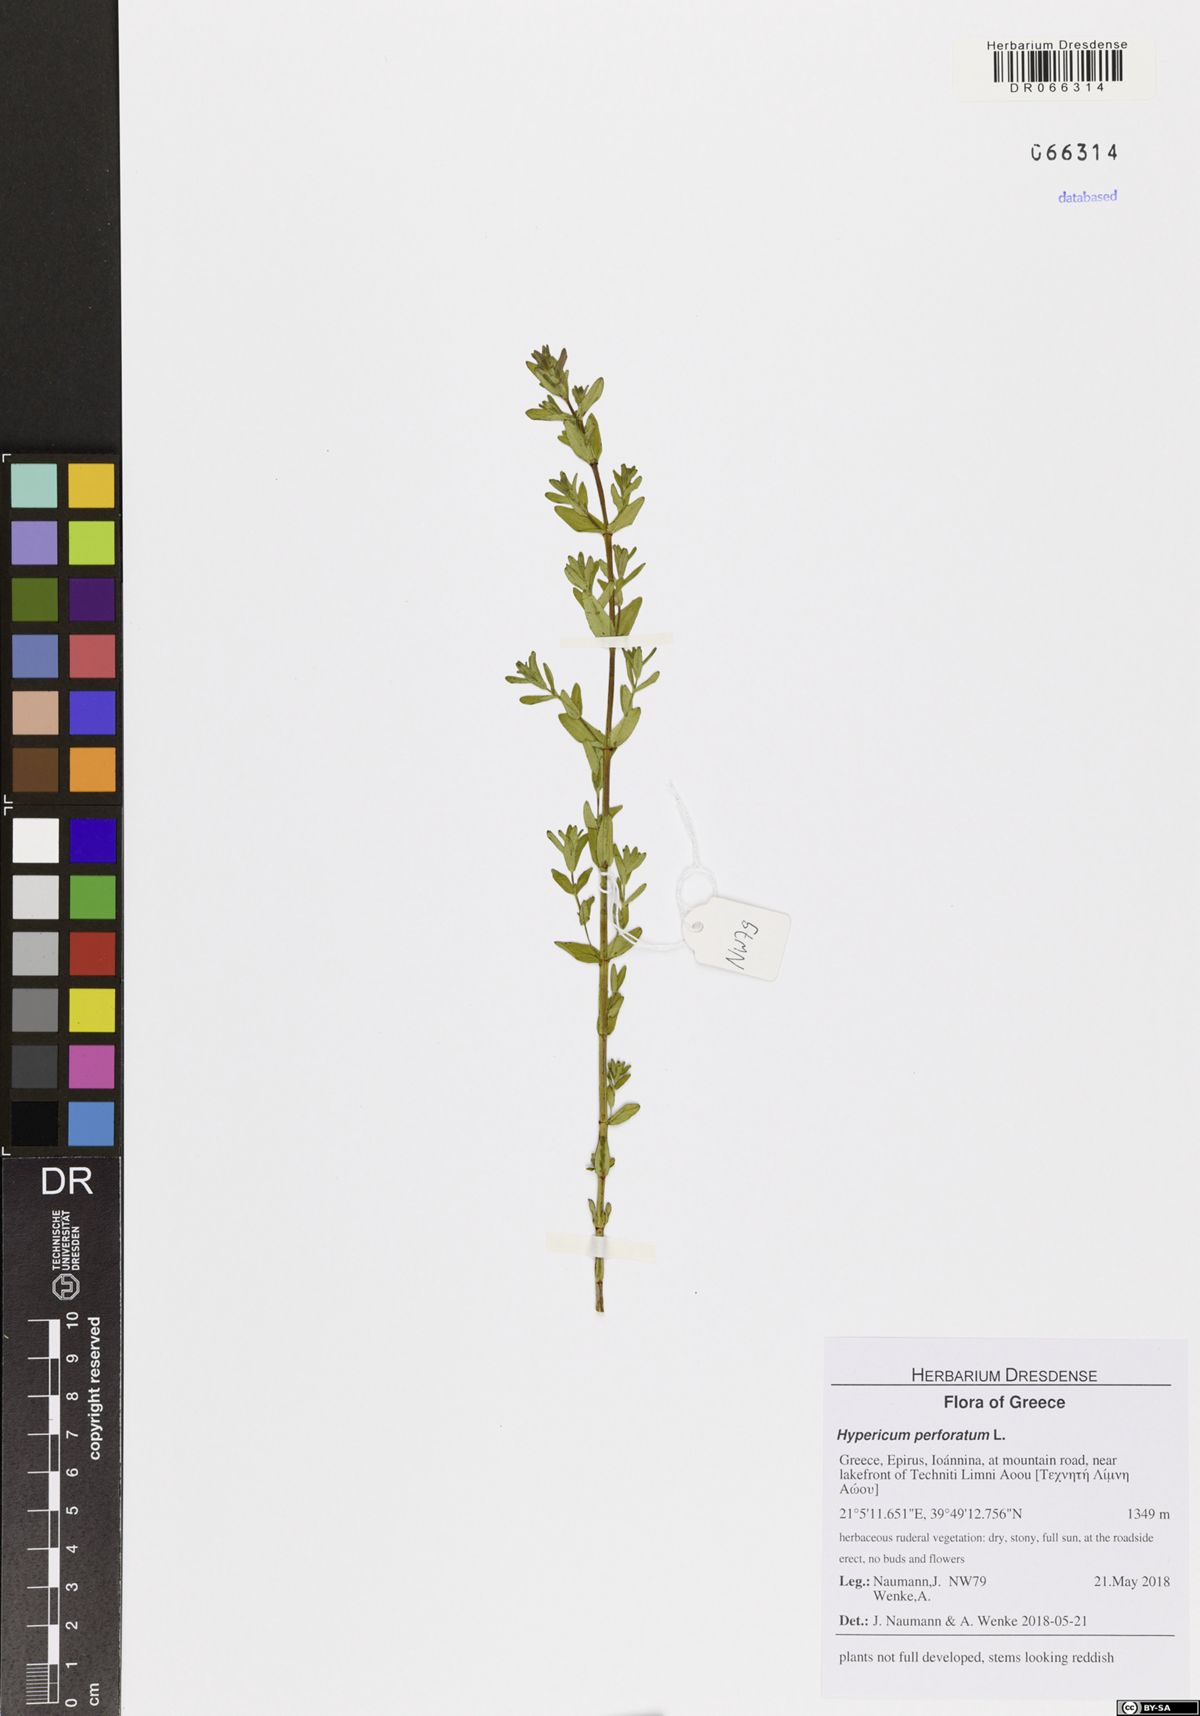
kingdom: Plantae
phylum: Tracheophyta
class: Magnoliopsida
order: Malpighiales
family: Hypericaceae
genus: Hypericum
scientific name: Hypericum perforatum
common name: Common st. johnswort
